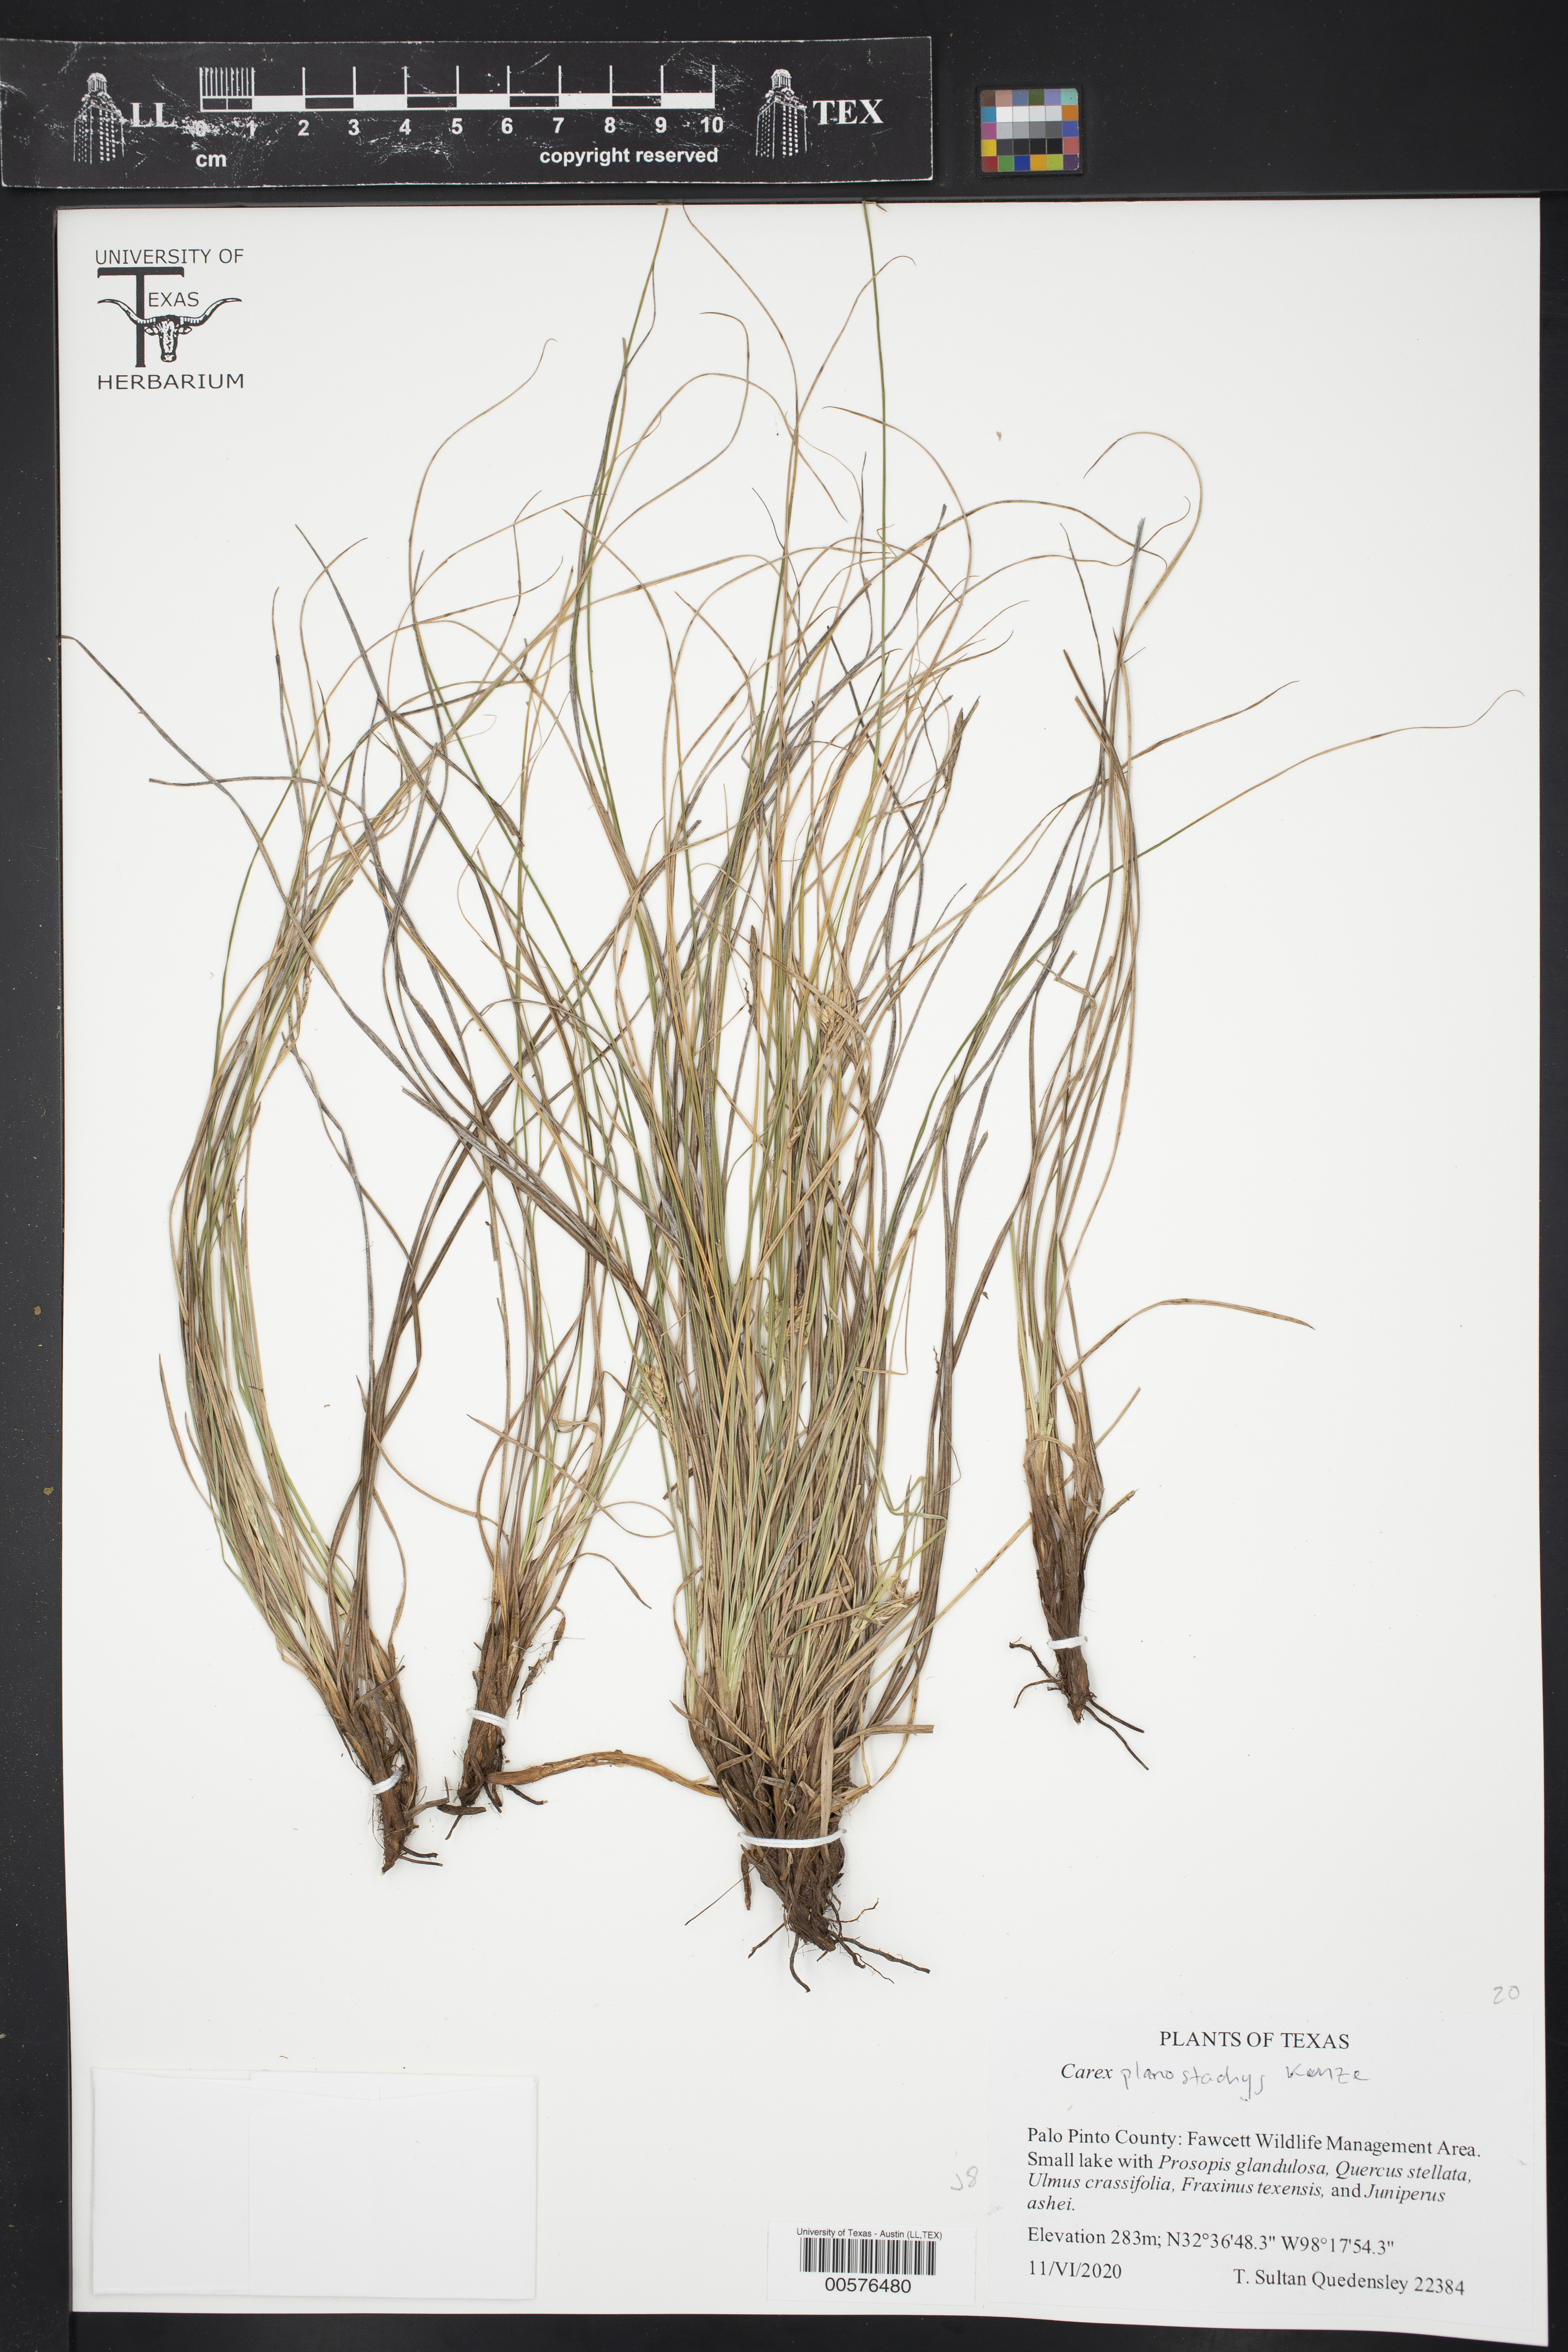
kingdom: Plantae
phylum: Tracheophyta
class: Liliopsida
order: Poales
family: Cyperaceae
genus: Carex
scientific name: Carex planostachys
